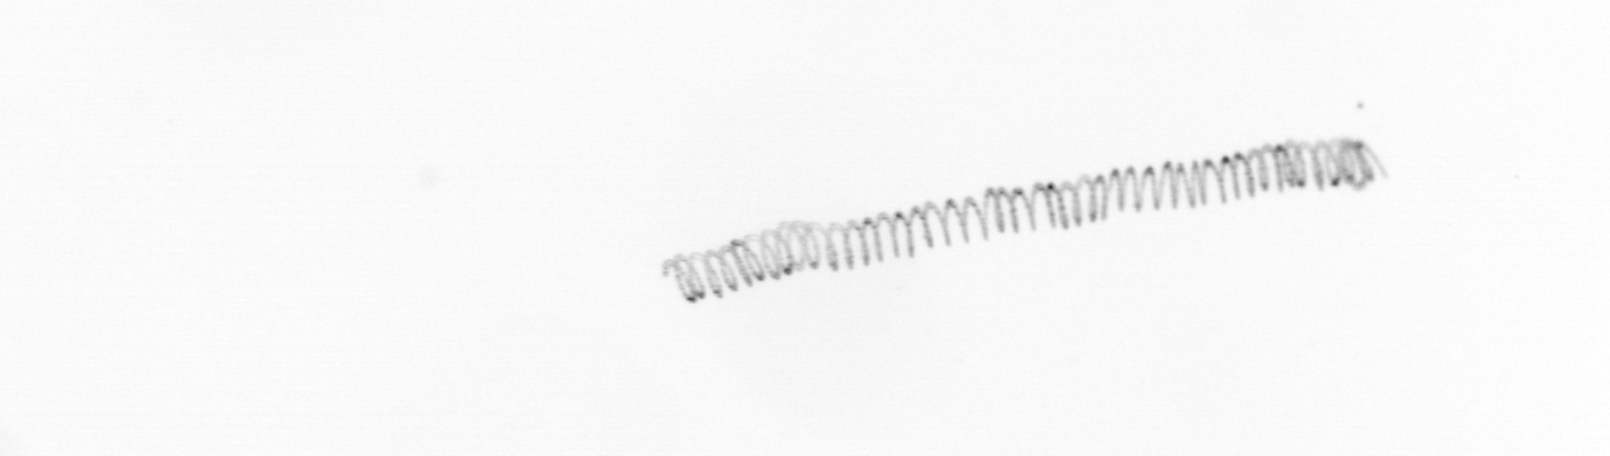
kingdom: Chromista
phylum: Ochrophyta
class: Bacillariophyceae
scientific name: Bacillariophyceae
